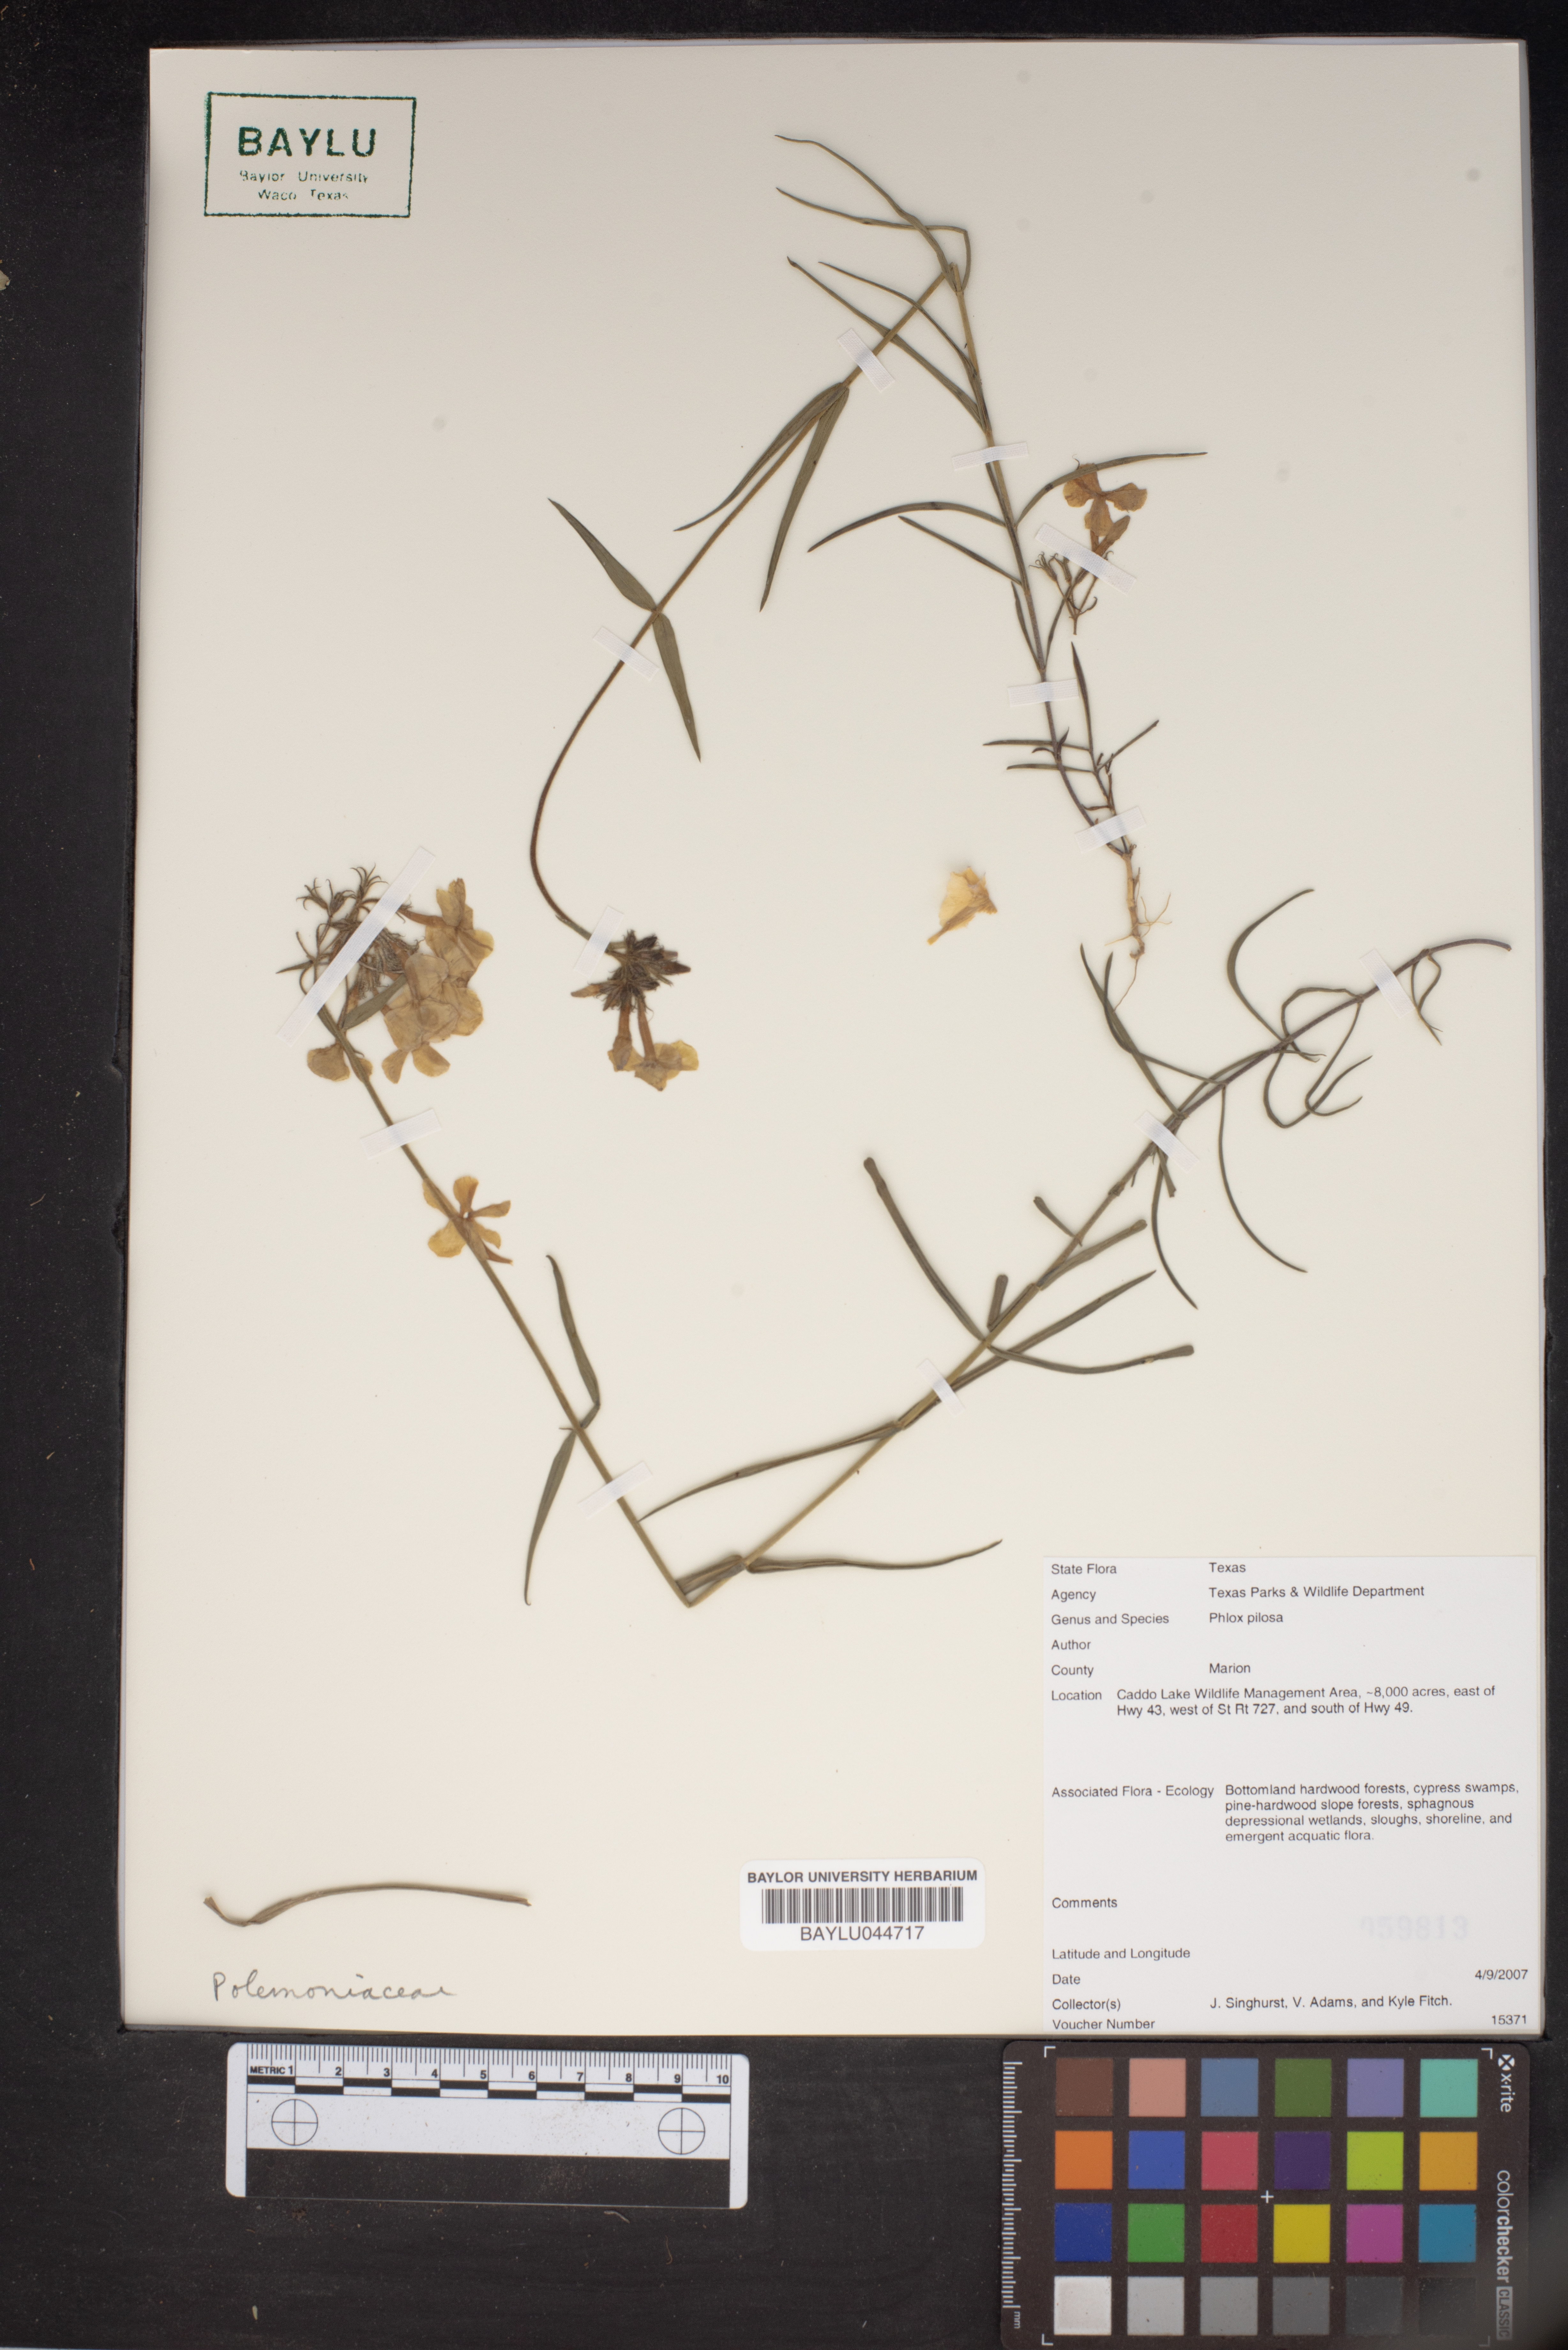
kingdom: Plantae
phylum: Tracheophyta
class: Magnoliopsida
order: Ericales
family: Polemoniaceae
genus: Phlox
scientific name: Phlox pilosa
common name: Prairie phlox
